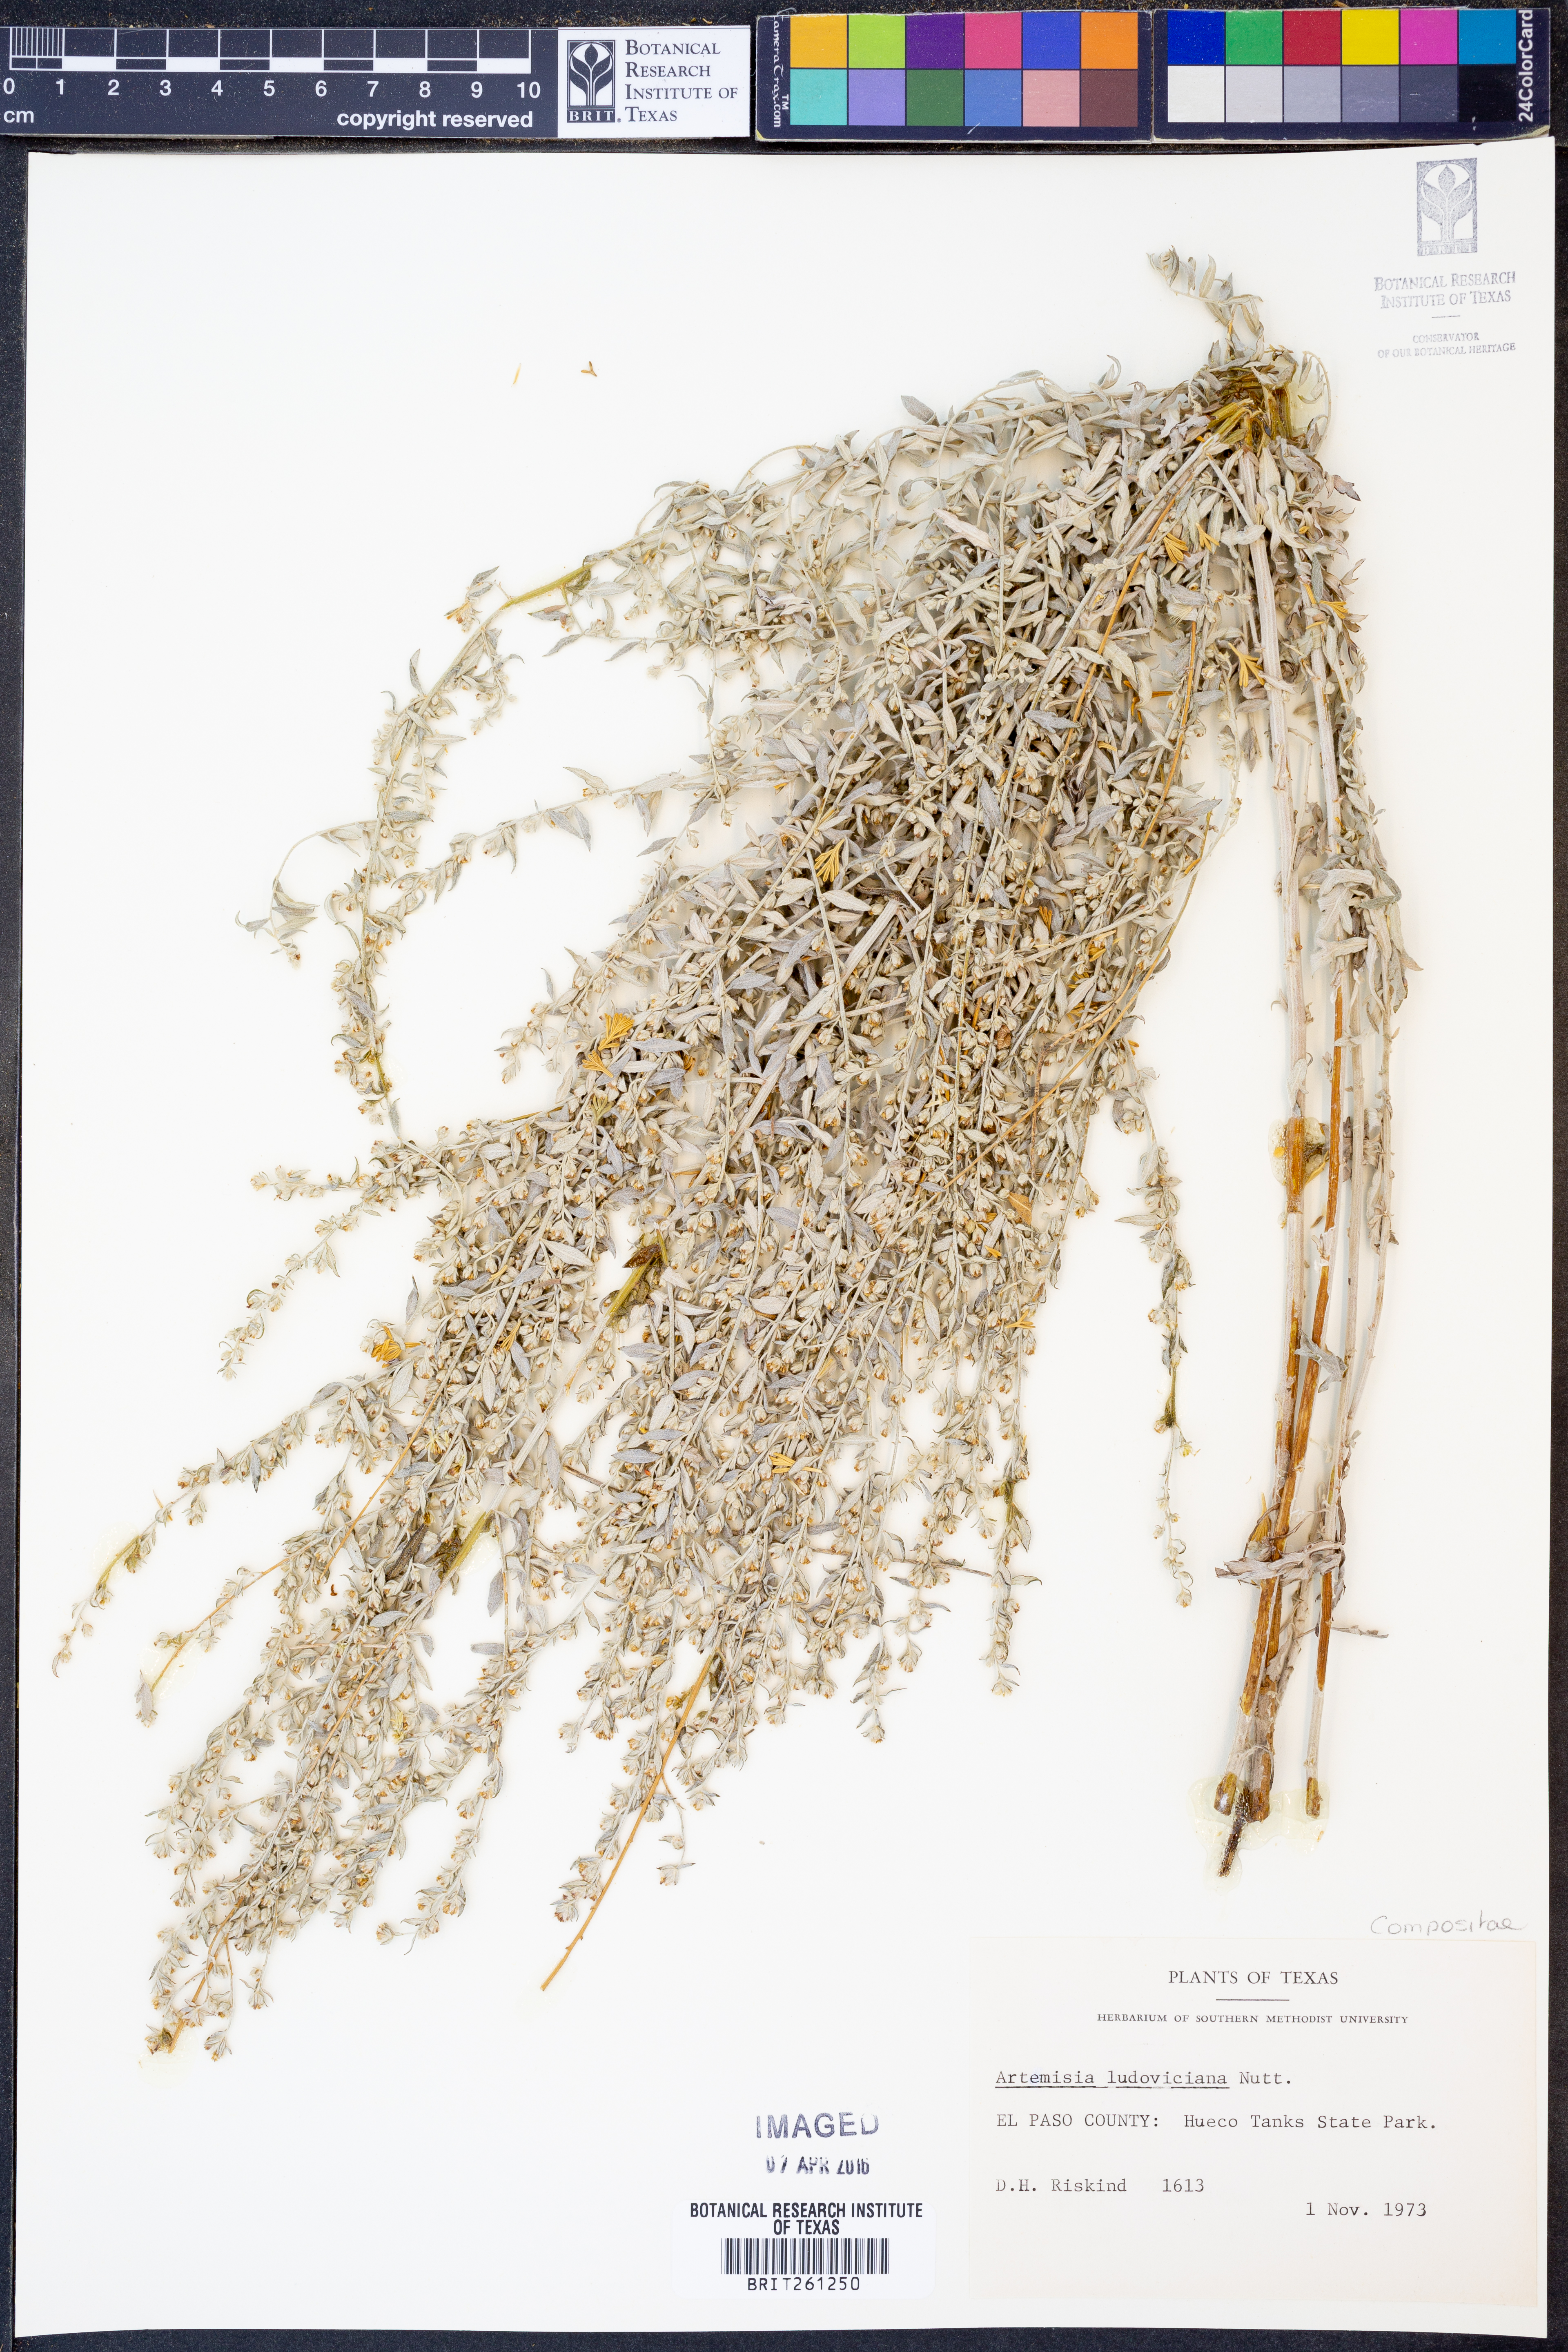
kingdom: Plantae
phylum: Tracheophyta
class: Magnoliopsida
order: Asterales
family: Asteraceae
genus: Artemisia
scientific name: Artemisia ludoviciana
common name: Western mugwort
